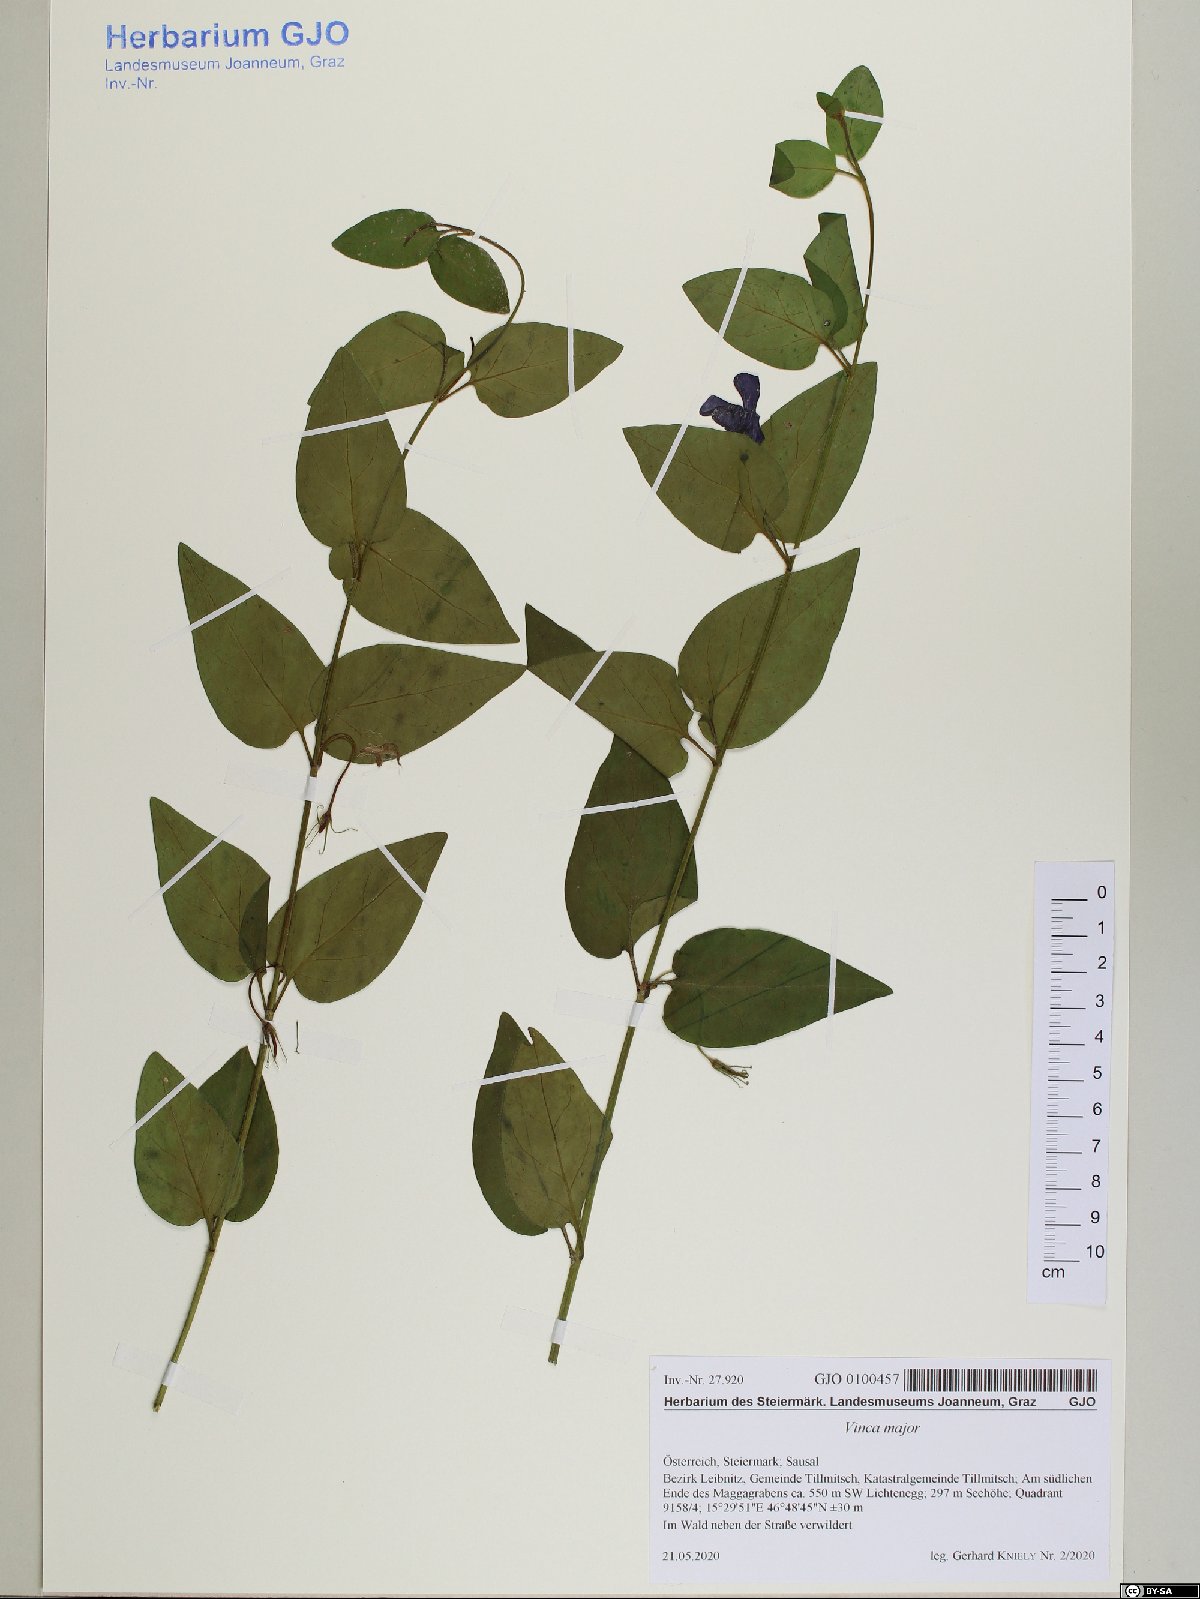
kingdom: Plantae
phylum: Tracheophyta
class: Magnoliopsida
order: Gentianales
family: Apocynaceae
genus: Vinca
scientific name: Vinca major
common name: Greater periwinkle
